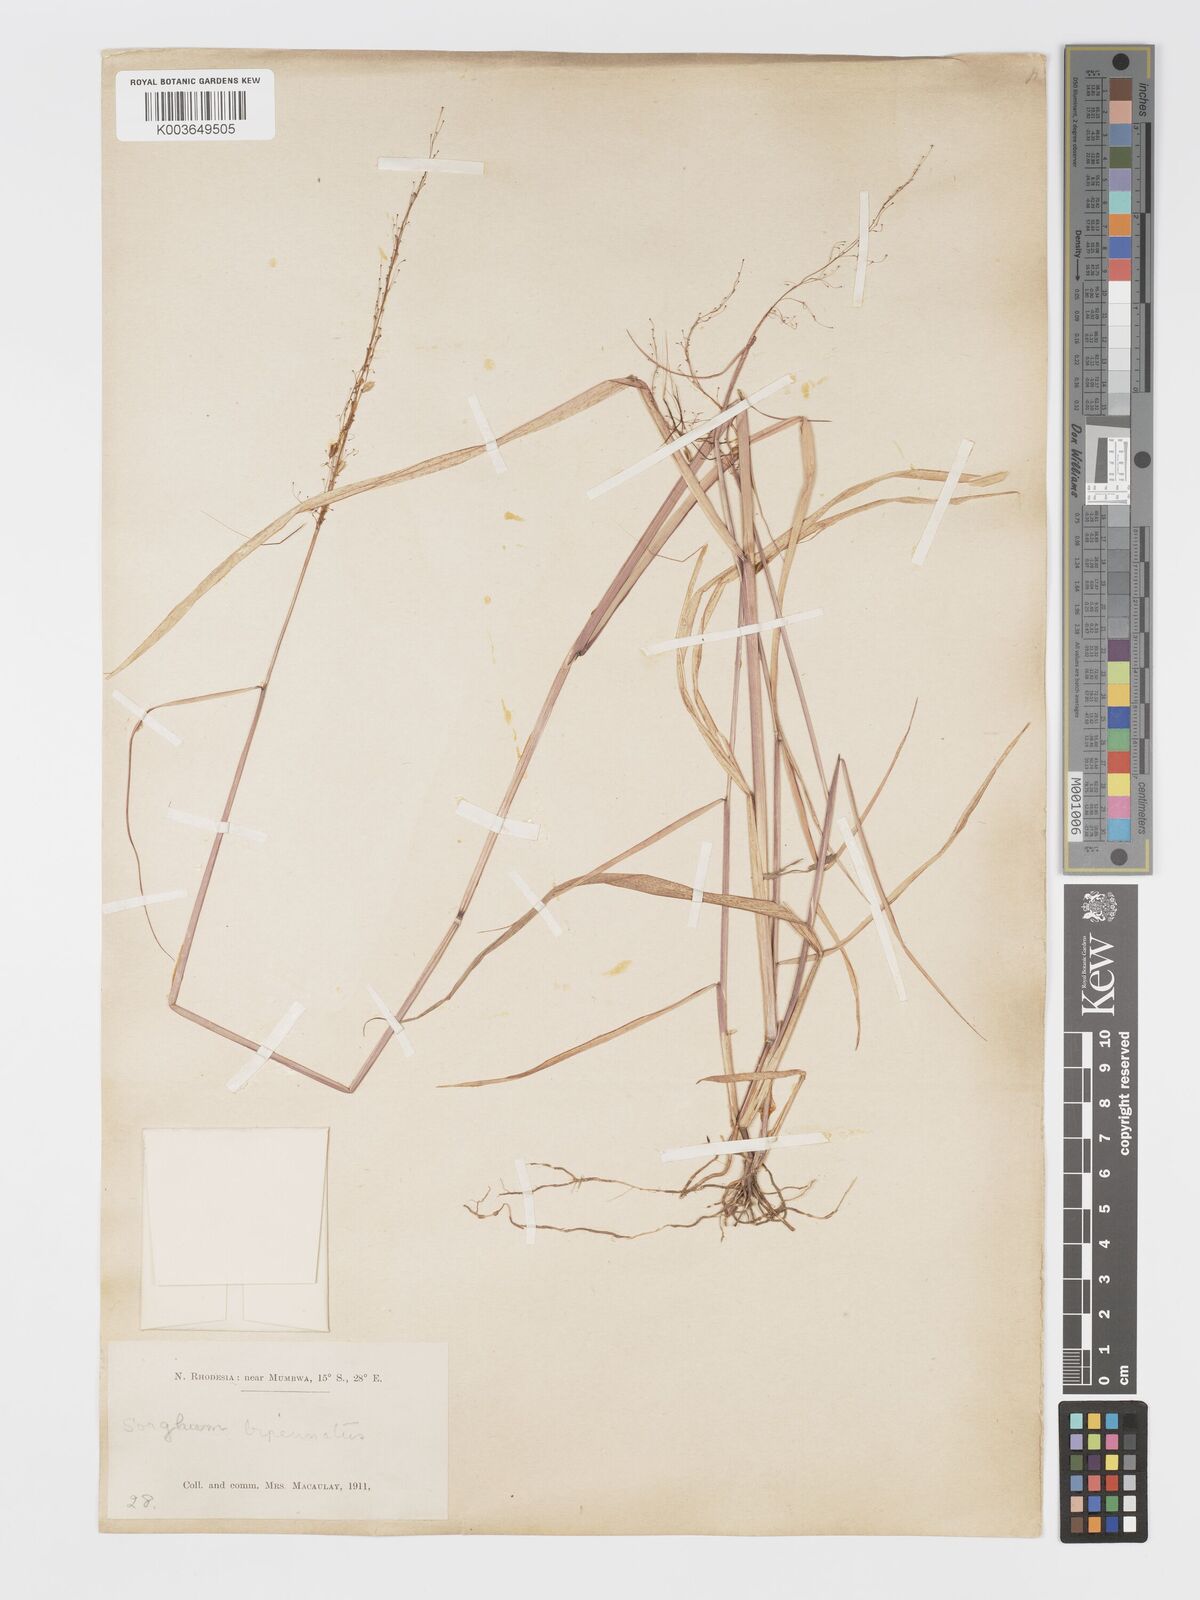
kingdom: Plantae
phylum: Tracheophyta
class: Liliopsida
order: Poales
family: Poaceae
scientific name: Poaceae
